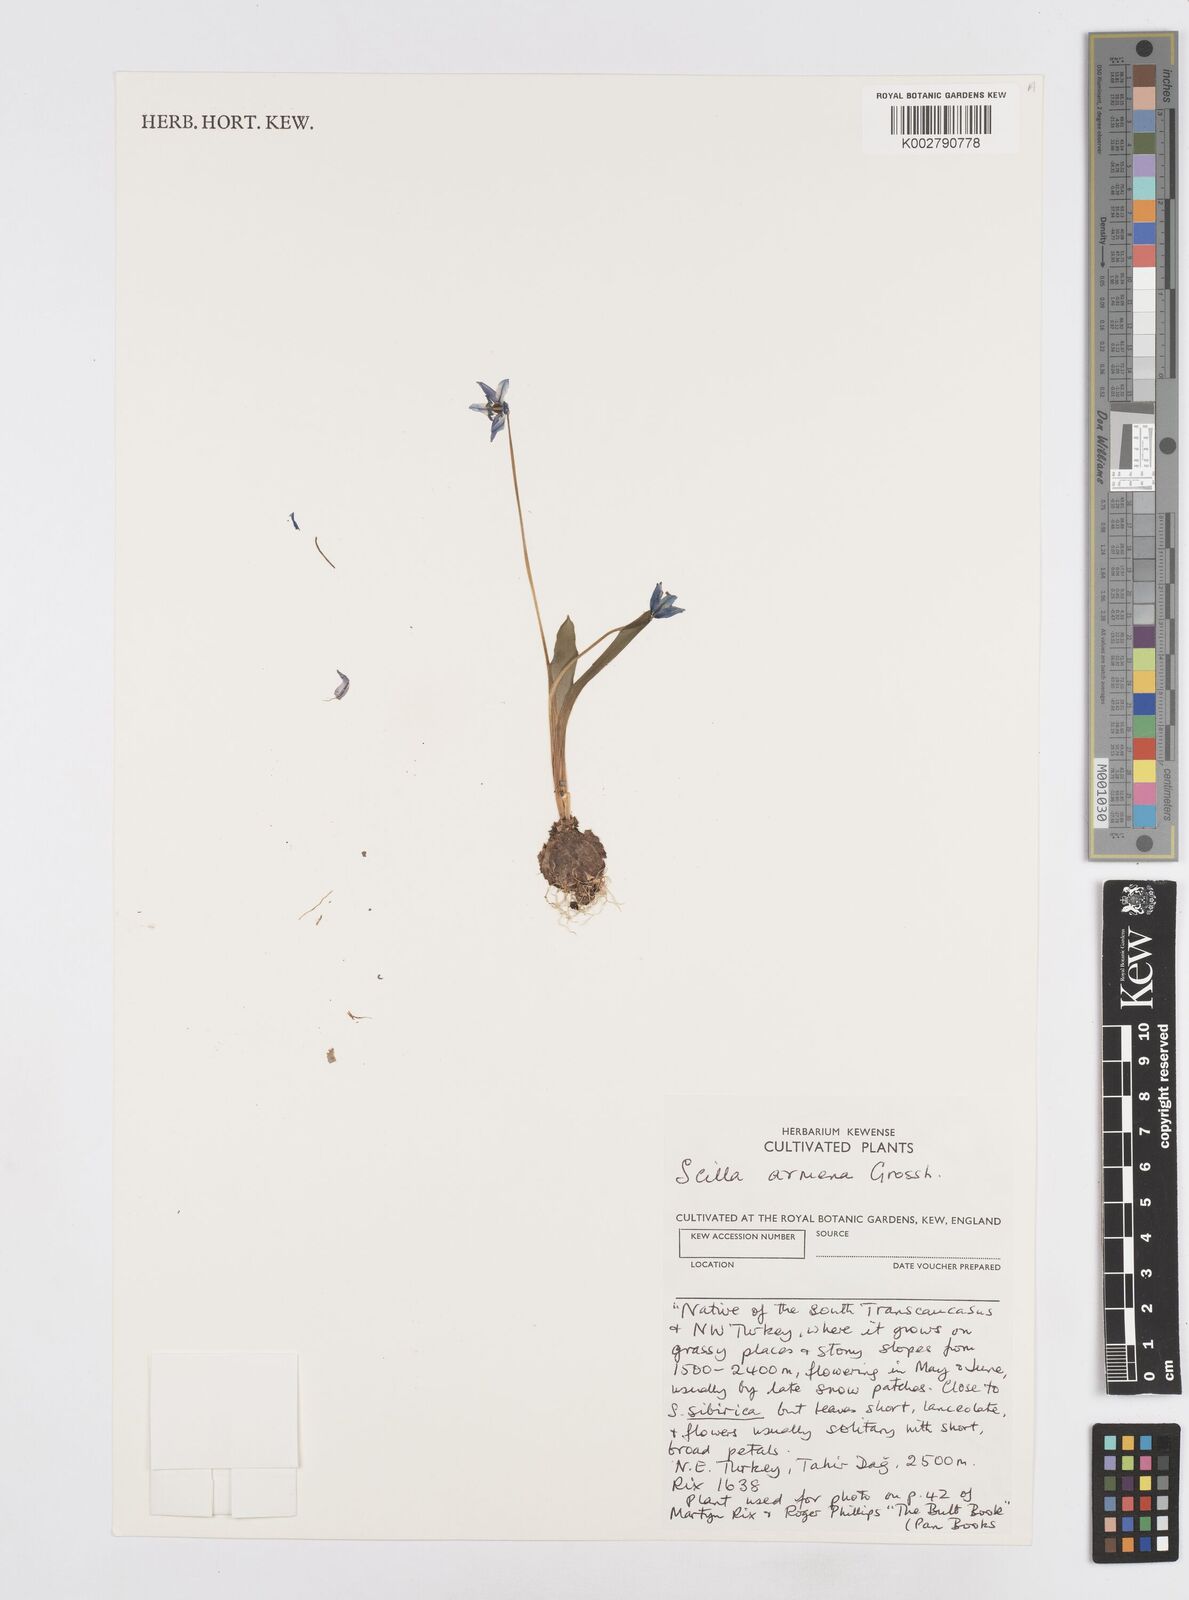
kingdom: Plantae
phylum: Tracheophyta
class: Liliopsida
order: Asparagales
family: Asparagaceae
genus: Scilla
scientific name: Scilla siberica
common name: Siberian squill
